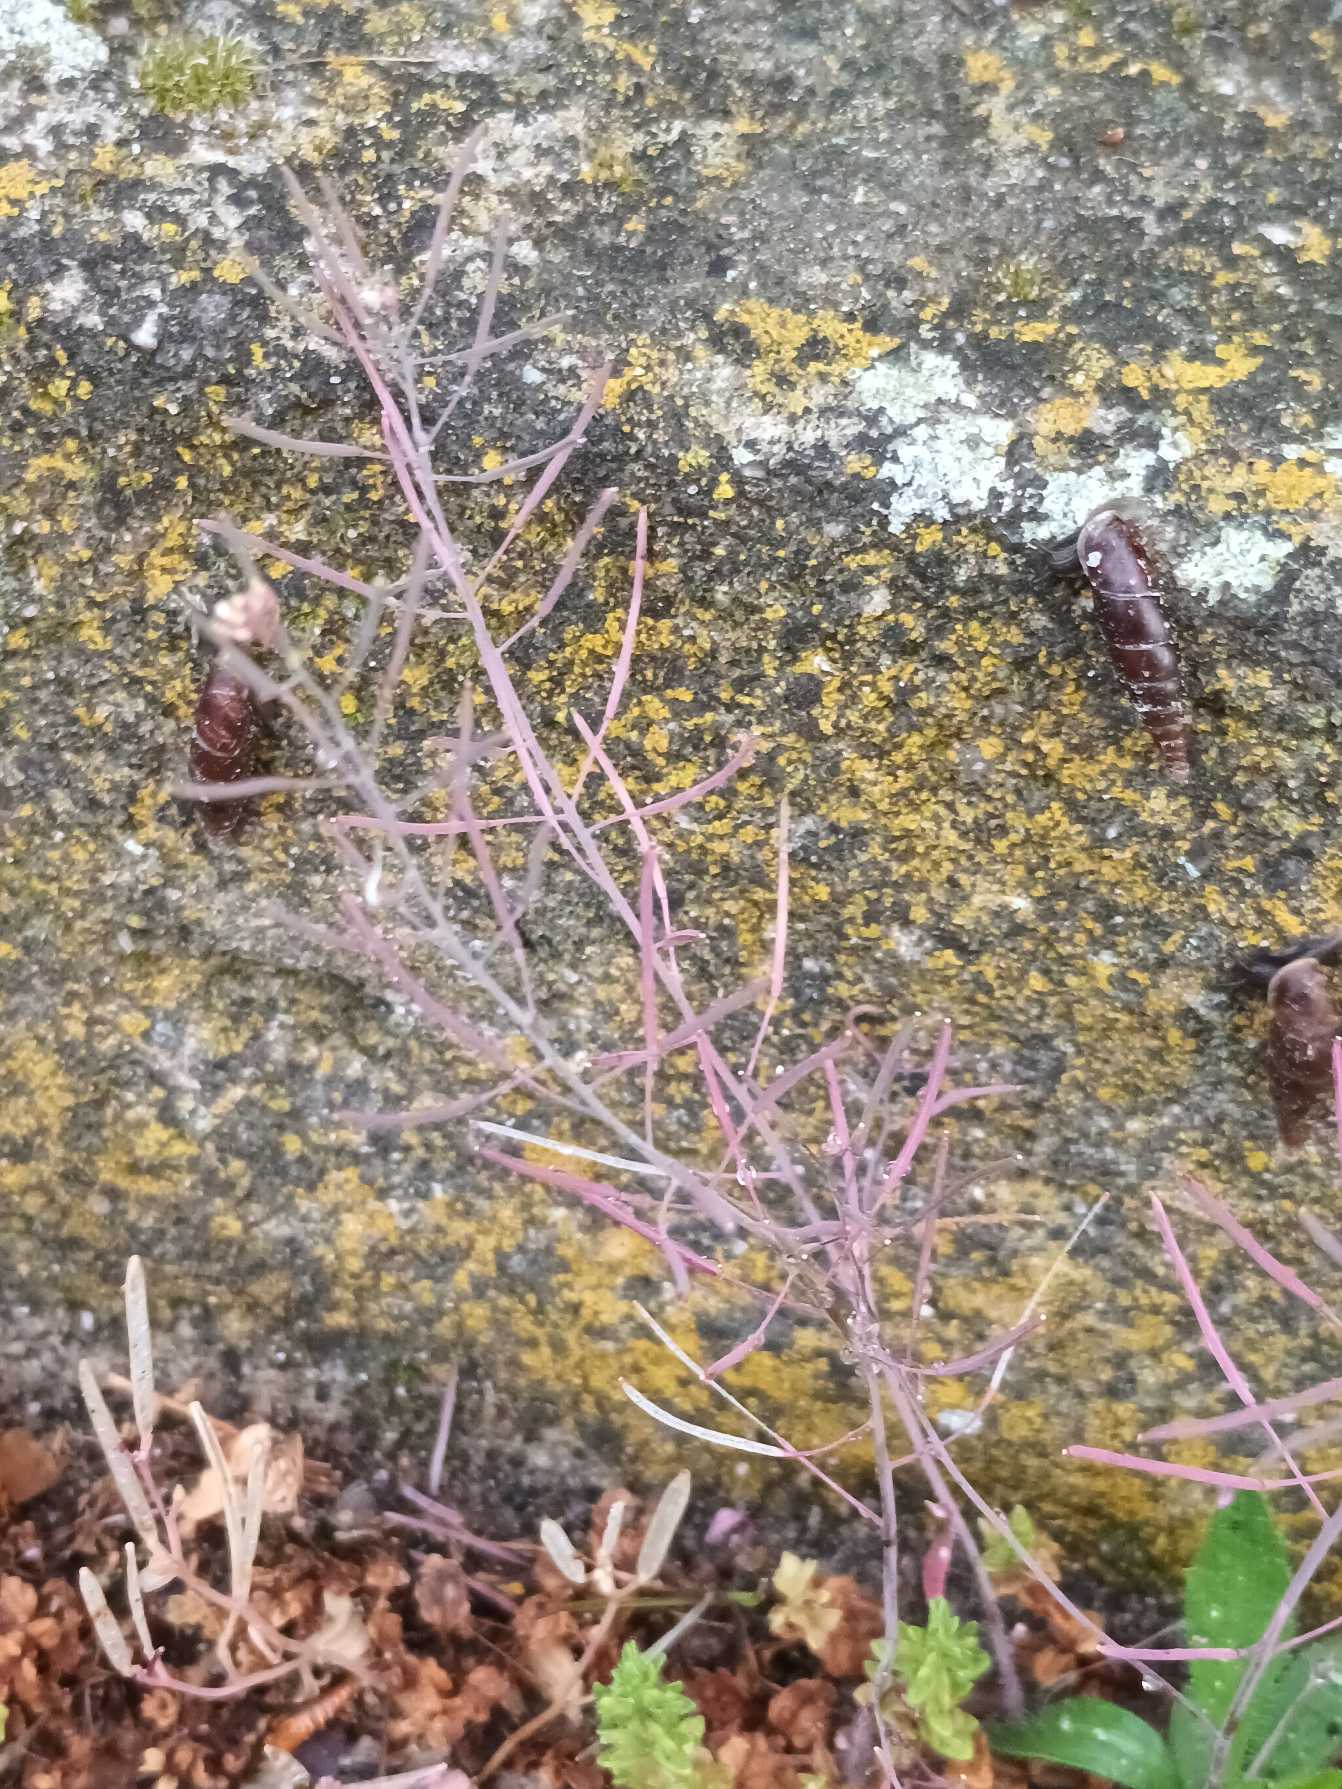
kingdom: Plantae
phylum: Tracheophyta
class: Magnoliopsida
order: Brassicales
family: Brassicaceae
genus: Arabidopsis
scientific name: Arabidopsis thaliana
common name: Almindelig gåsemad
